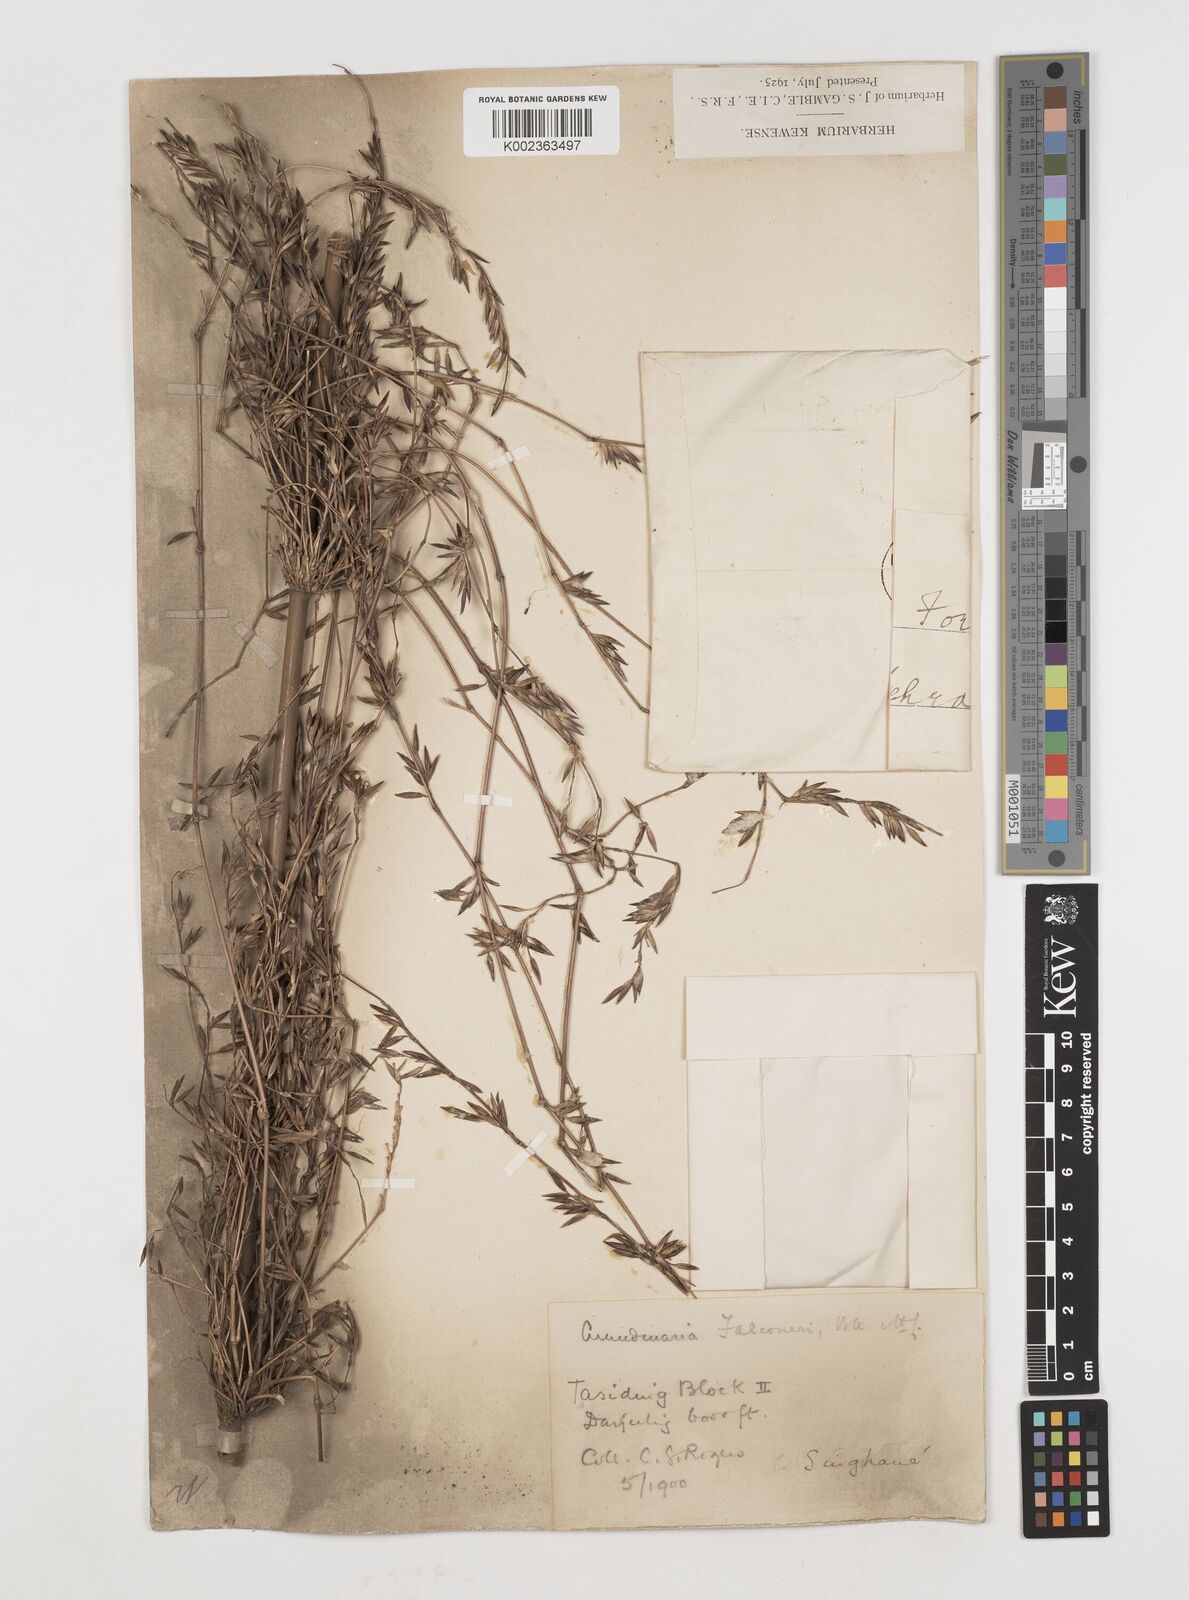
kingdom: Plantae
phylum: Tracheophyta
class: Liliopsida
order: Poales
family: Poaceae
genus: Himalayacalamus
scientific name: Himalayacalamus falconeri
